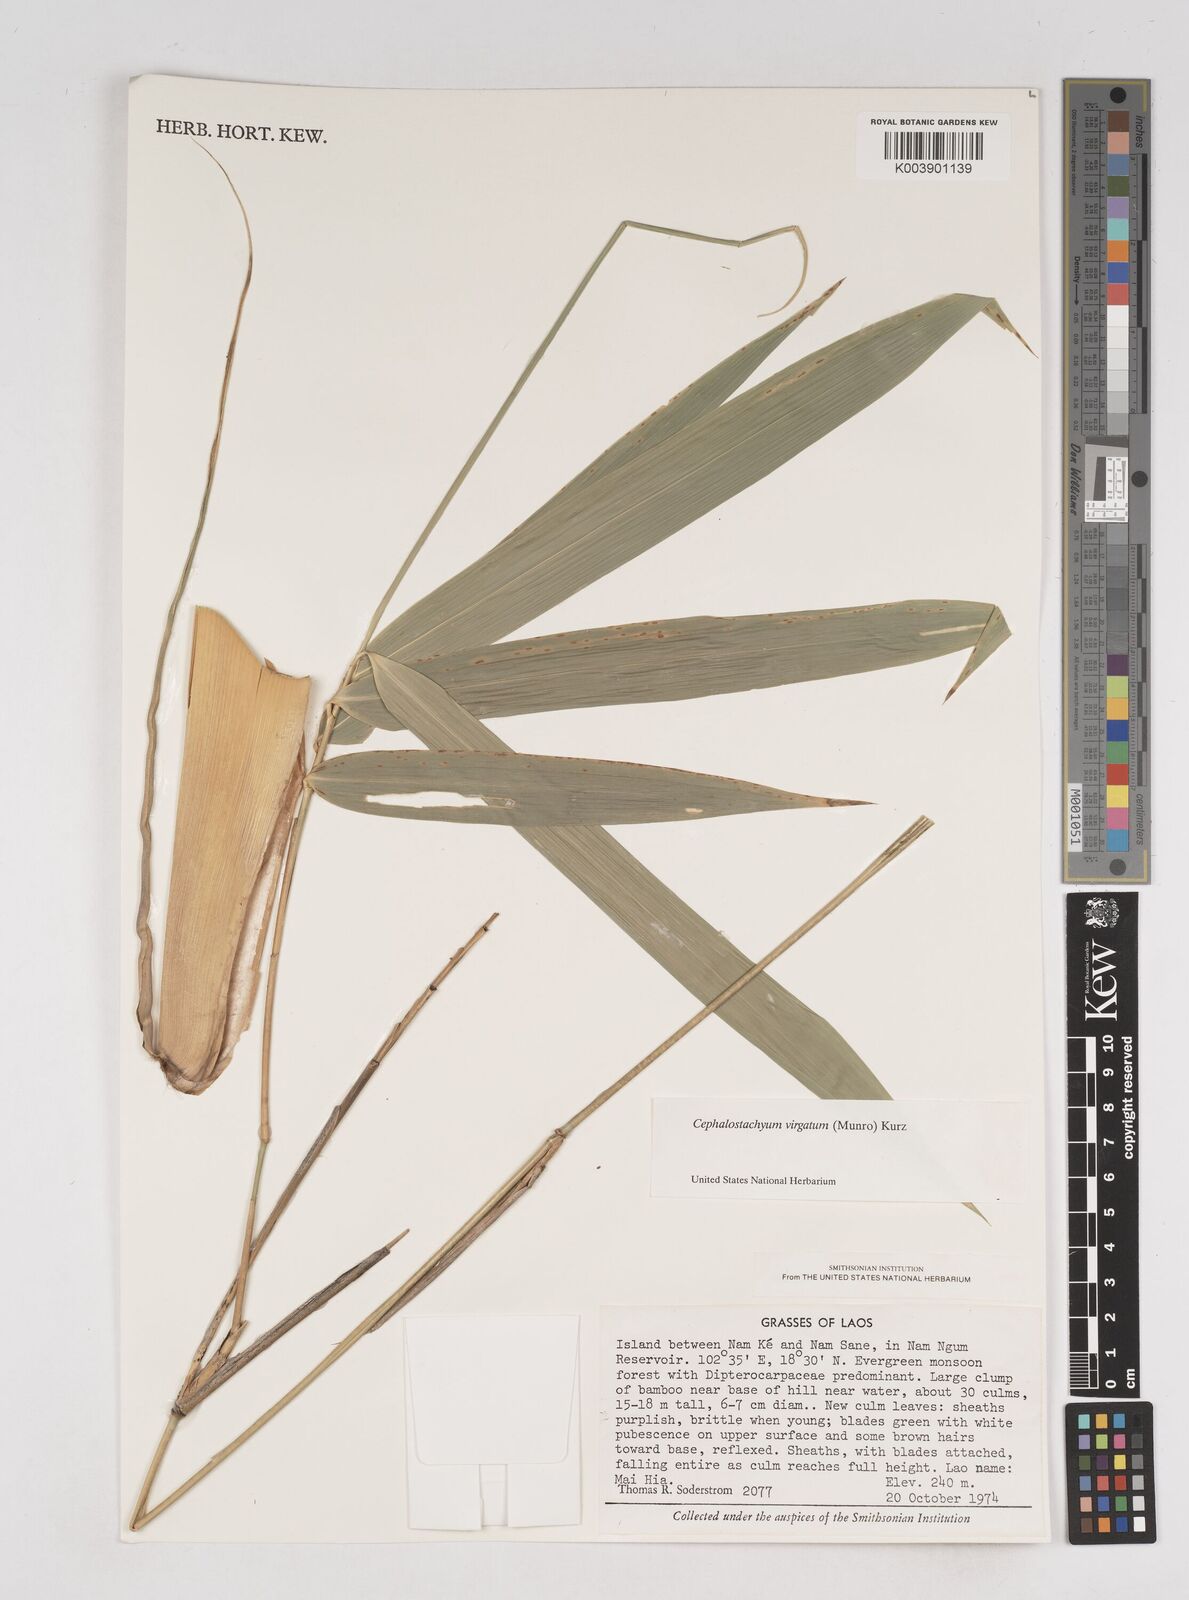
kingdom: Plantae
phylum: Tracheophyta
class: Liliopsida
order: Poales
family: Poaceae
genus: Schizostachyum
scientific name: Schizostachyum virgatum
